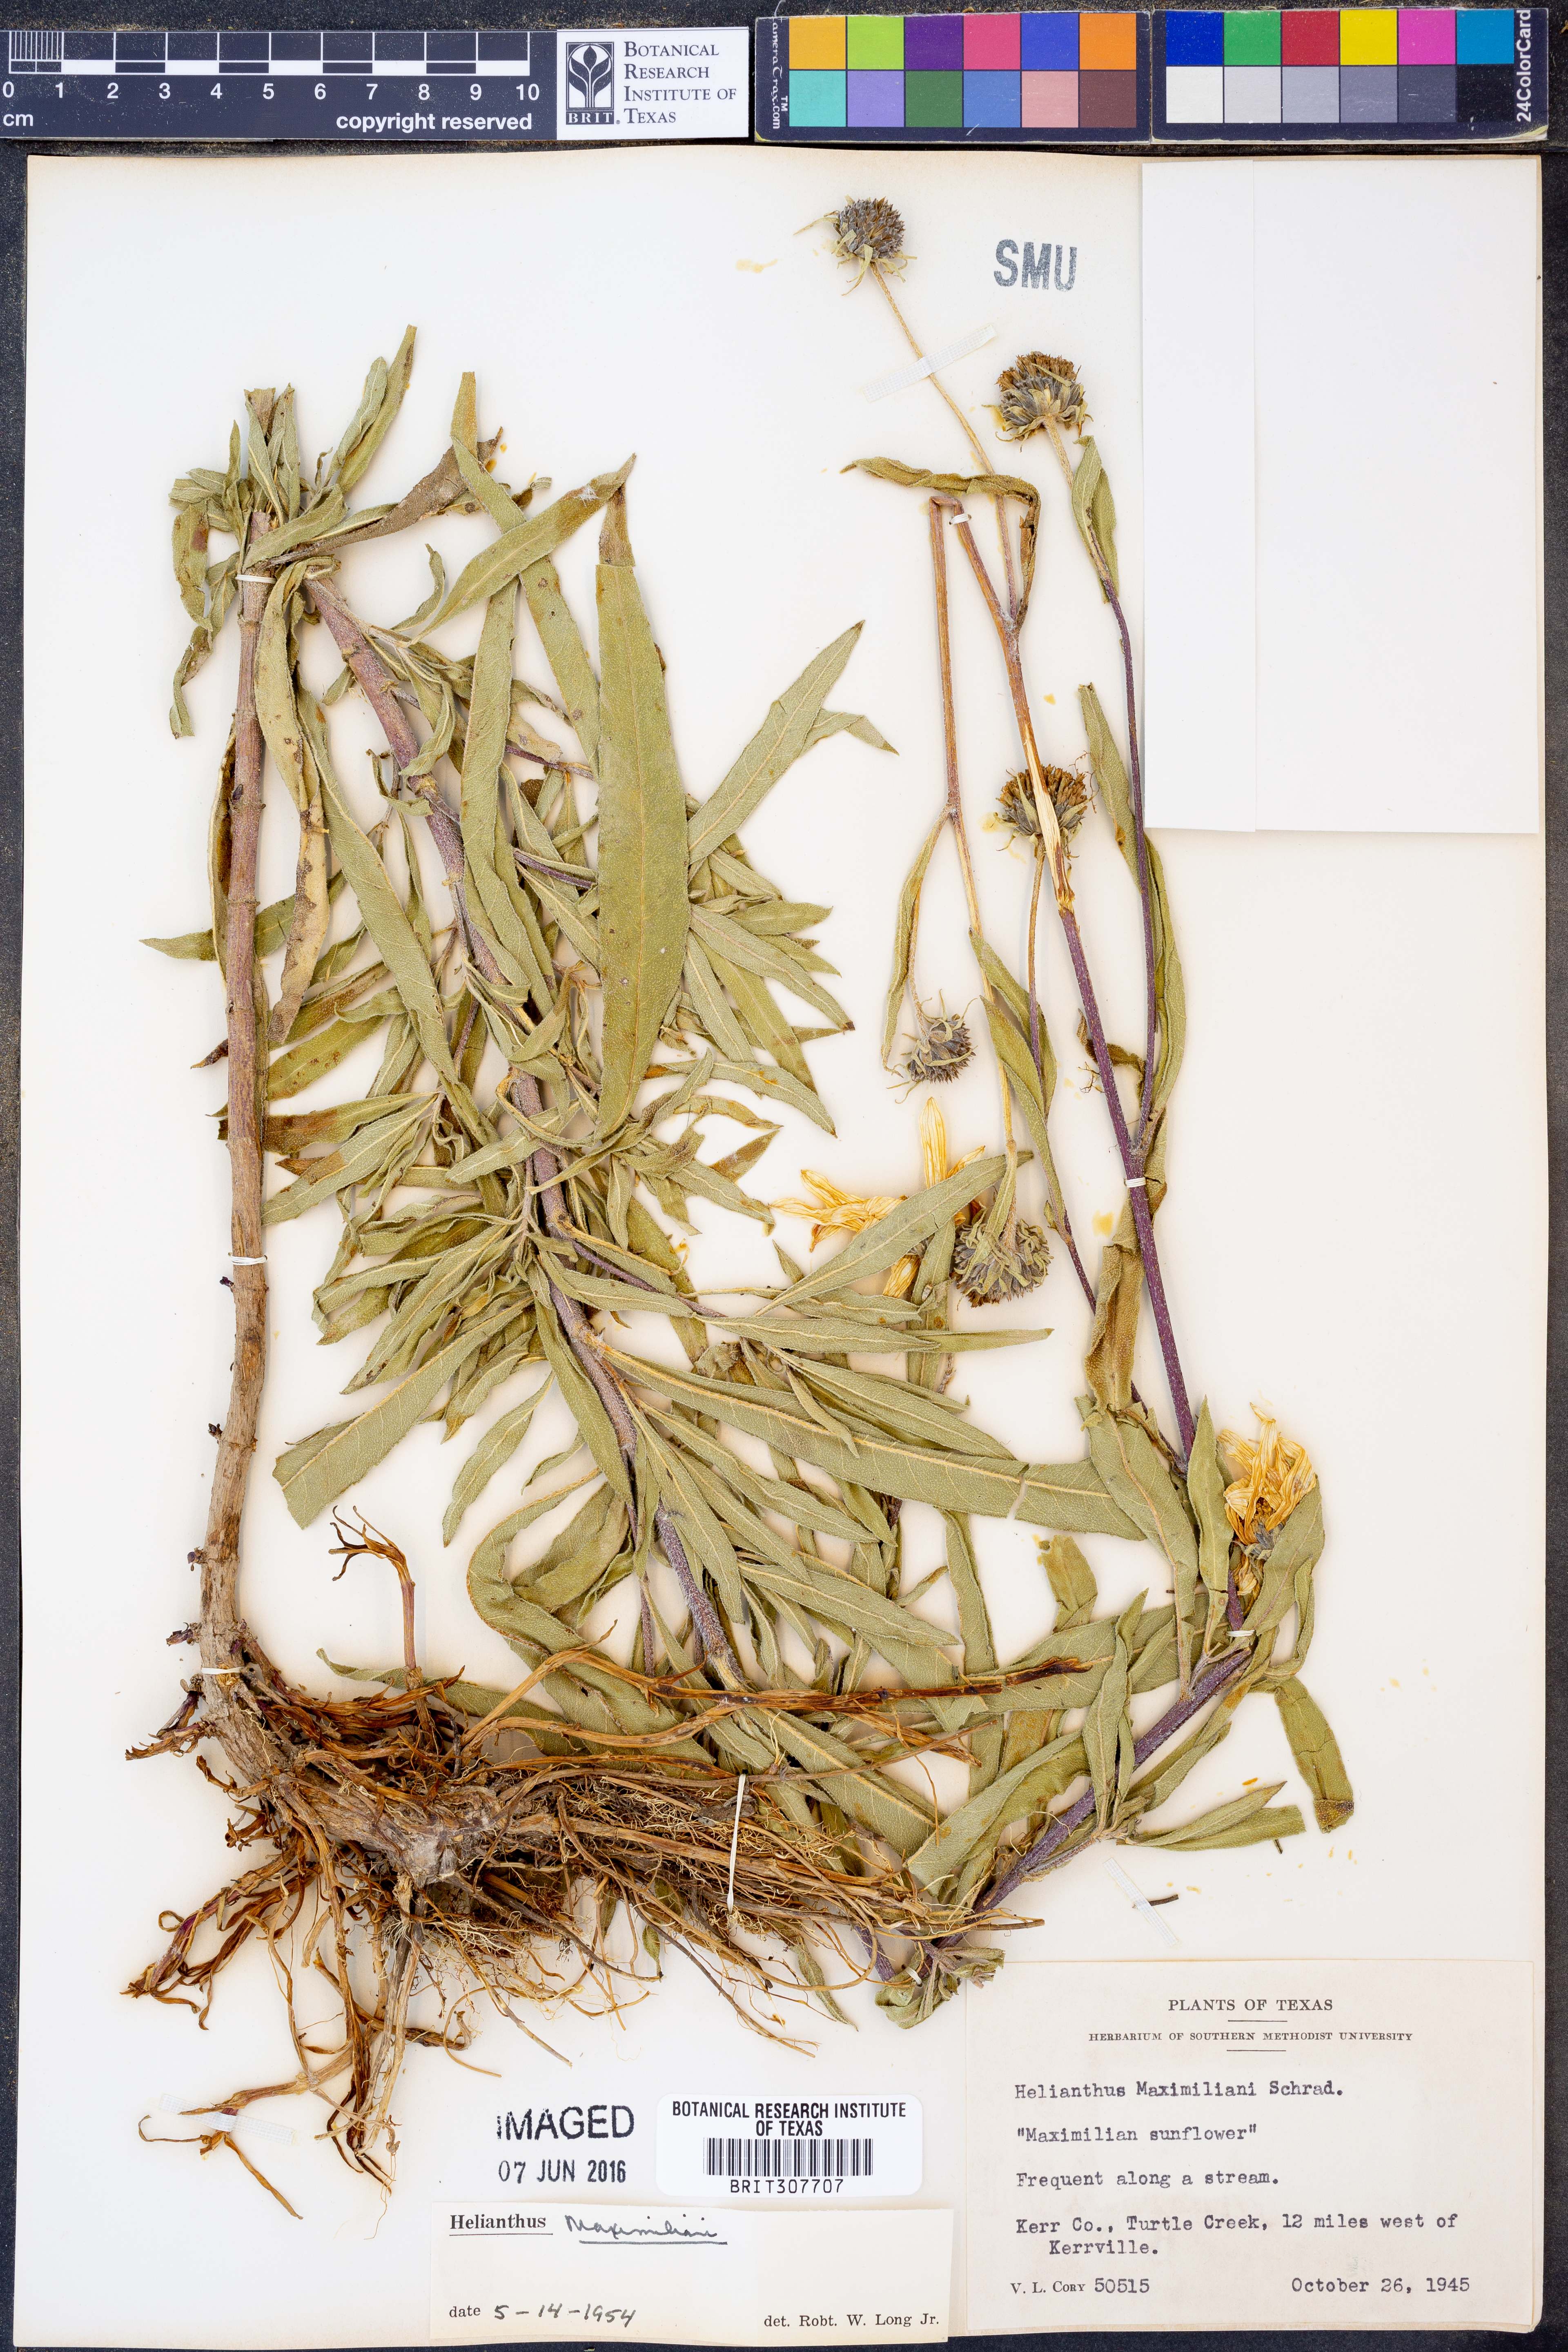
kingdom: Plantae
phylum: Tracheophyta
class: Magnoliopsida
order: Asterales
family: Asteraceae
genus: Helianthus
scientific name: Helianthus maximiliani
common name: Maximilian's sunflower
